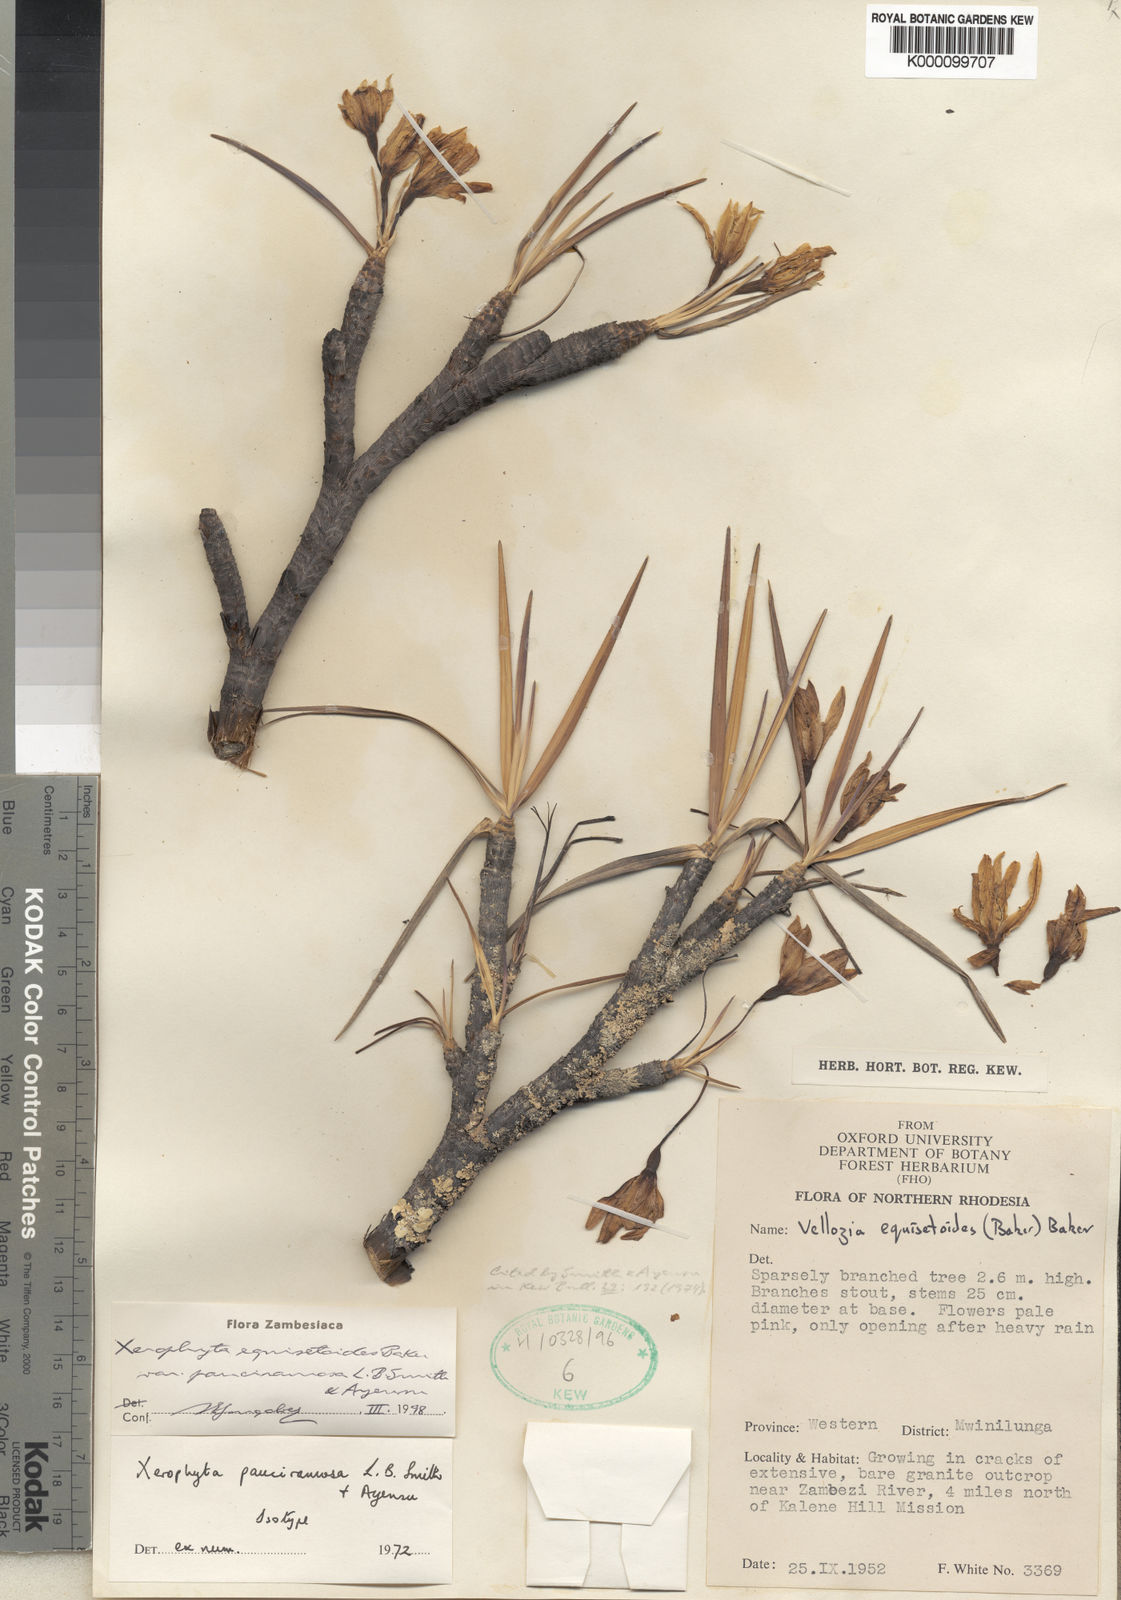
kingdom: Plantae
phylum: Tracheophyta
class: Liliopsida
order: Pandanales
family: Velloziaceae
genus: Xerophyta
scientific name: Xerophyta pauciramosa
